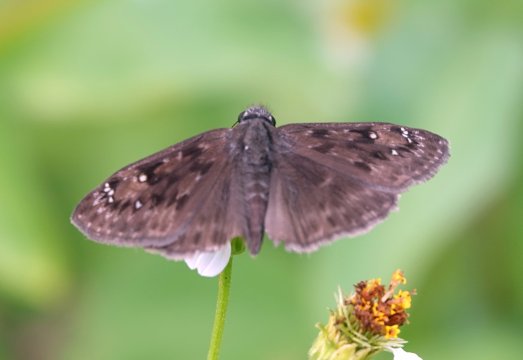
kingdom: Animalia
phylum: Arthropoda
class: Insecta
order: Lepidoptera
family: Hesperiidae
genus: Erynnis
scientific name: Erynnis zarucco
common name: Zarucco Duskywing
